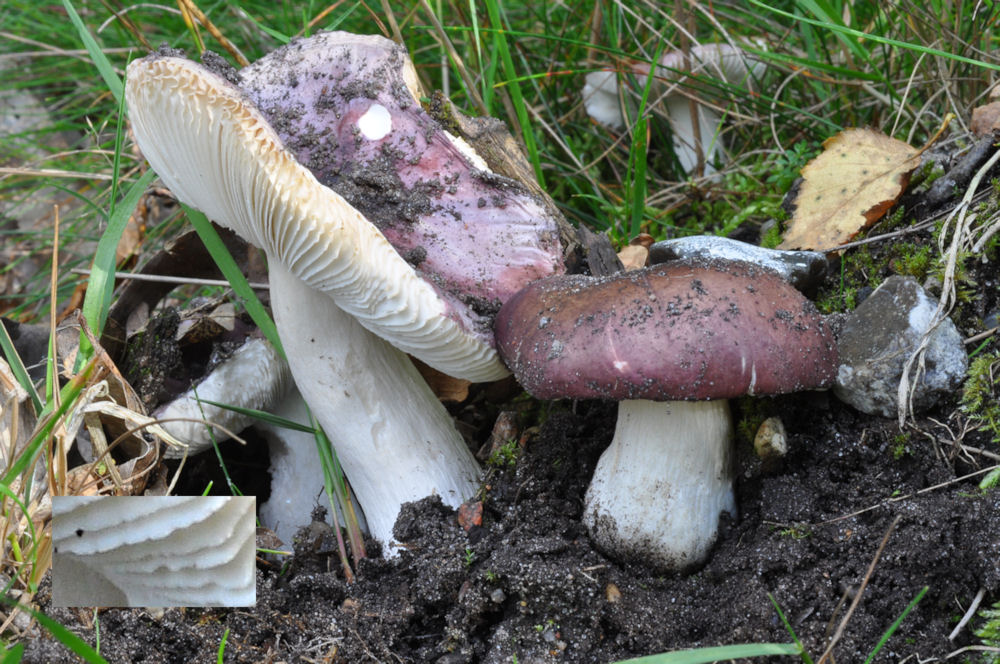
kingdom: Fungi
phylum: Basidiomycota
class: Agaricomycetes
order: Russulales
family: Russulaceae
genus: Russula
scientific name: Russula fragilis
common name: Fragile brittlegill
